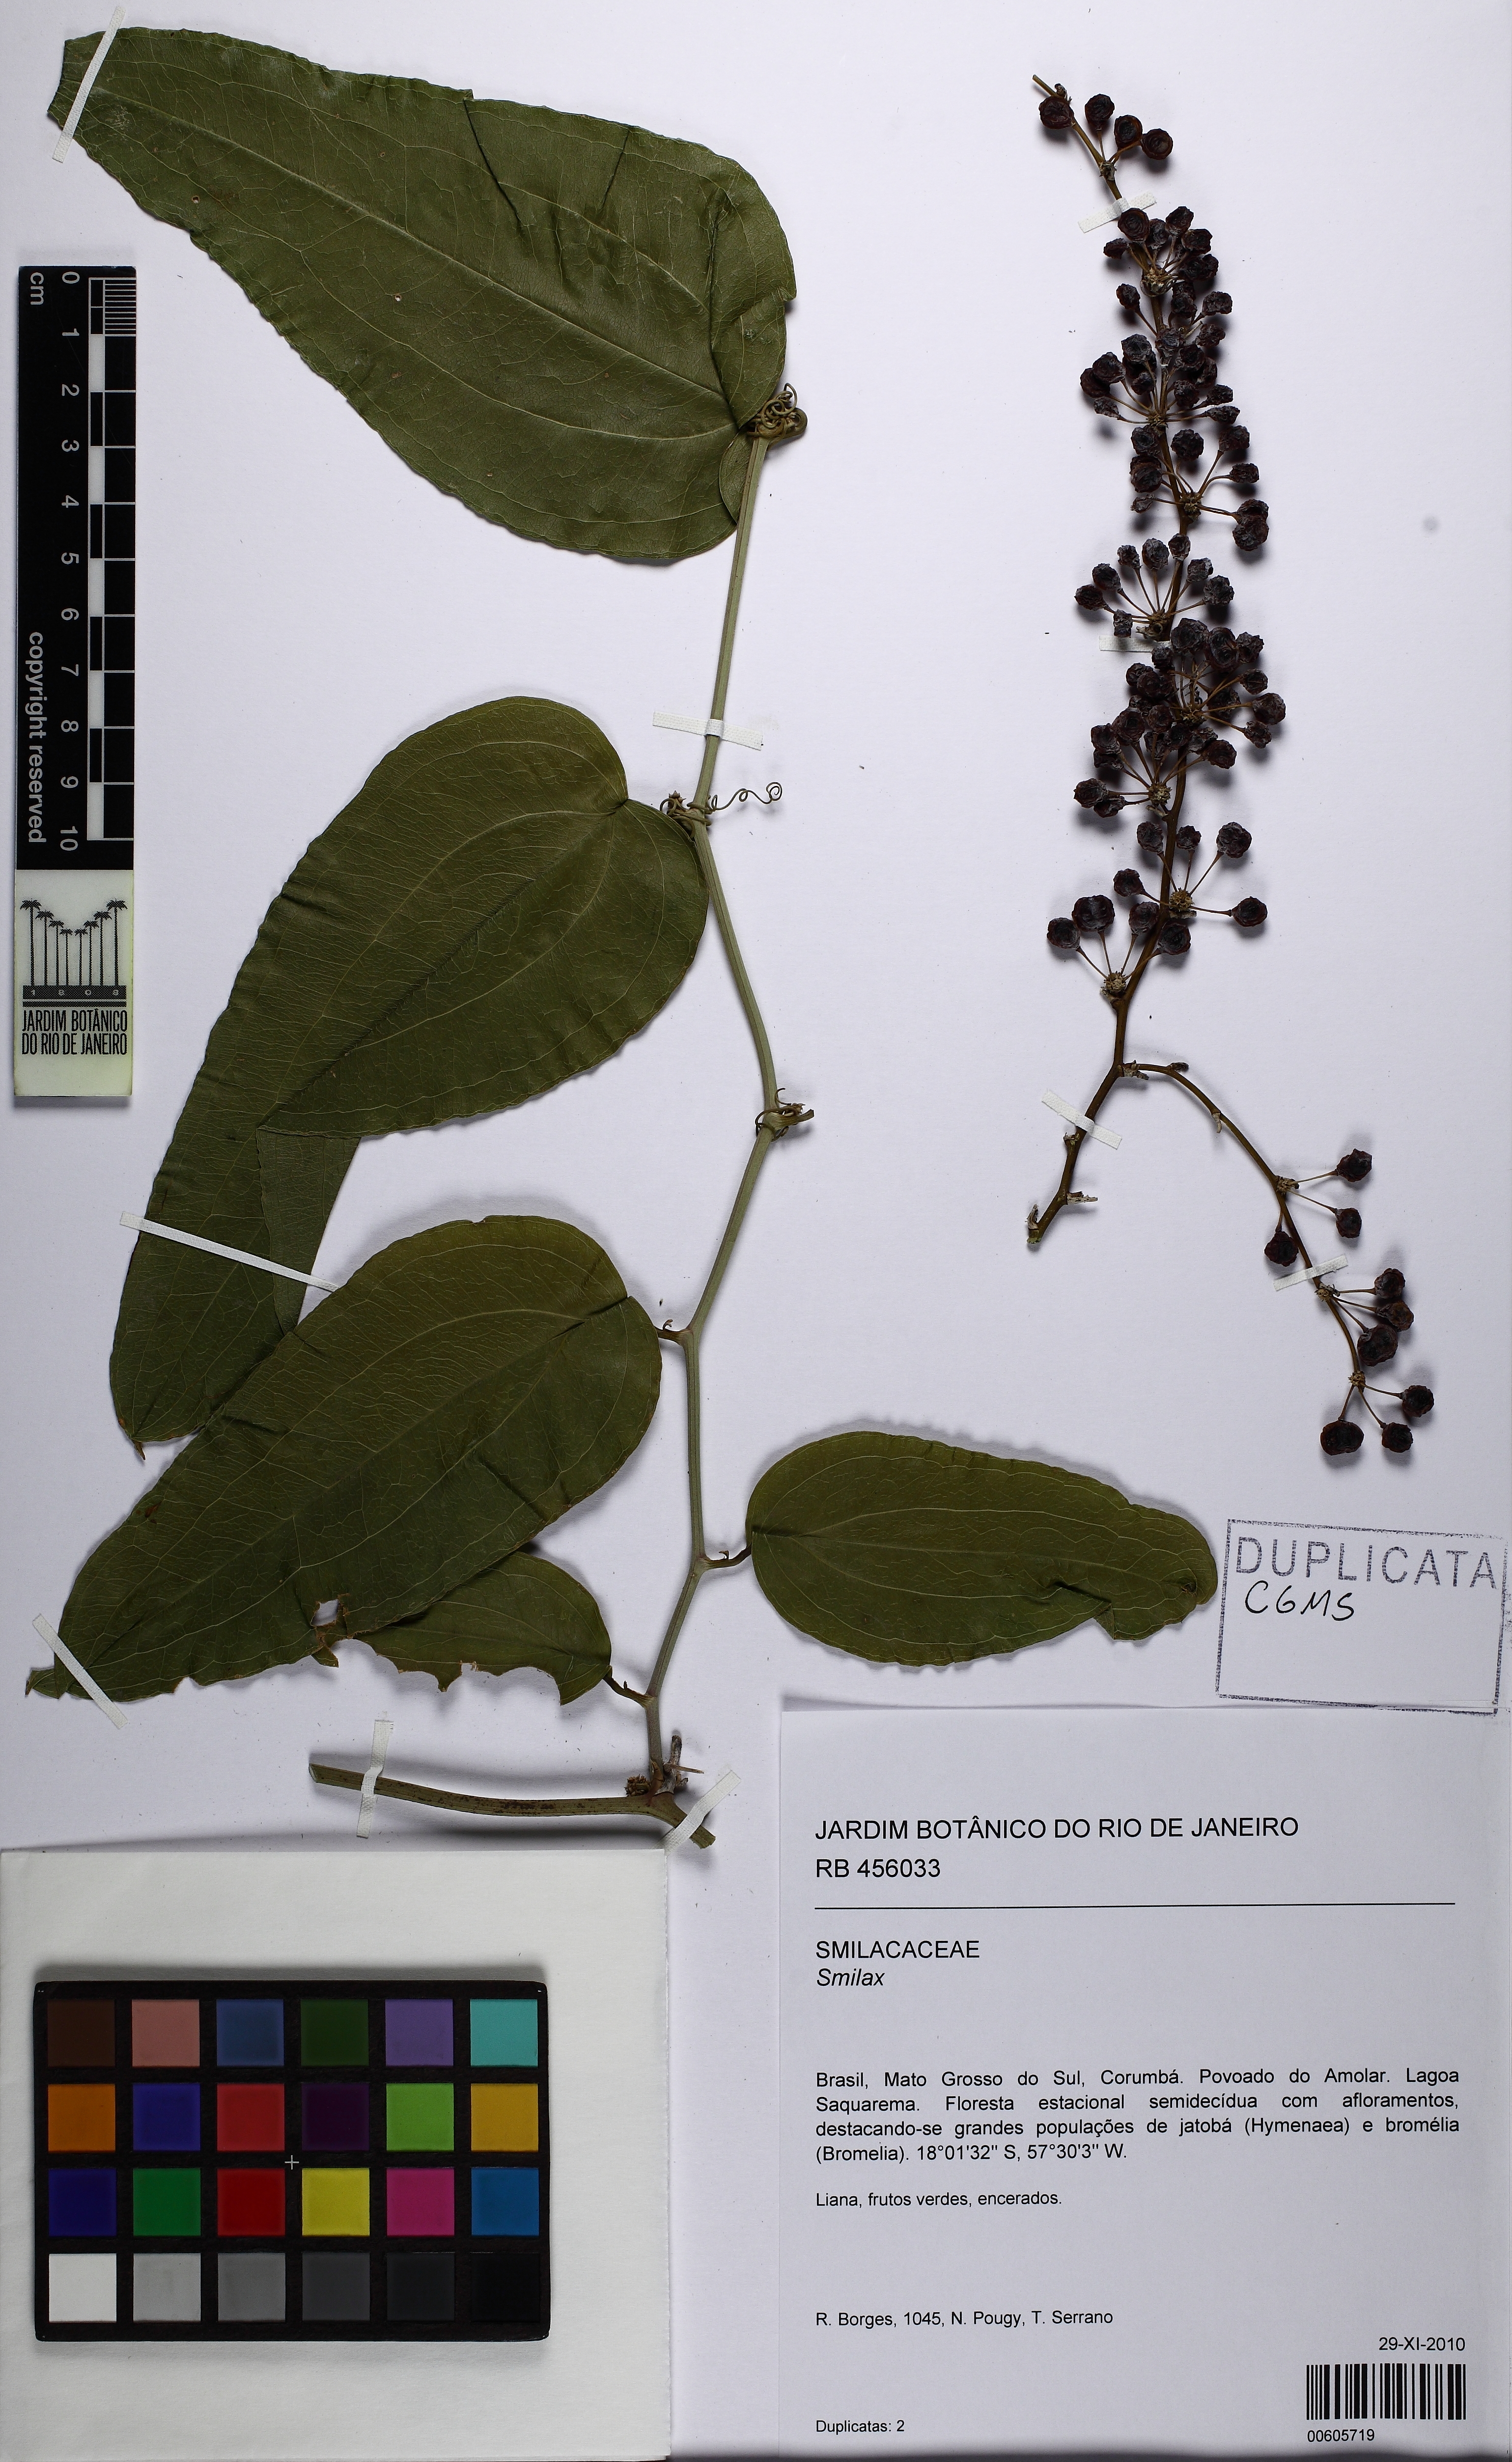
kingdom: Plantae
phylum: Tracheophyta
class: Liliopsida
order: Liliales
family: Smilacaceae
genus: Smilax
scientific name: Smilax
